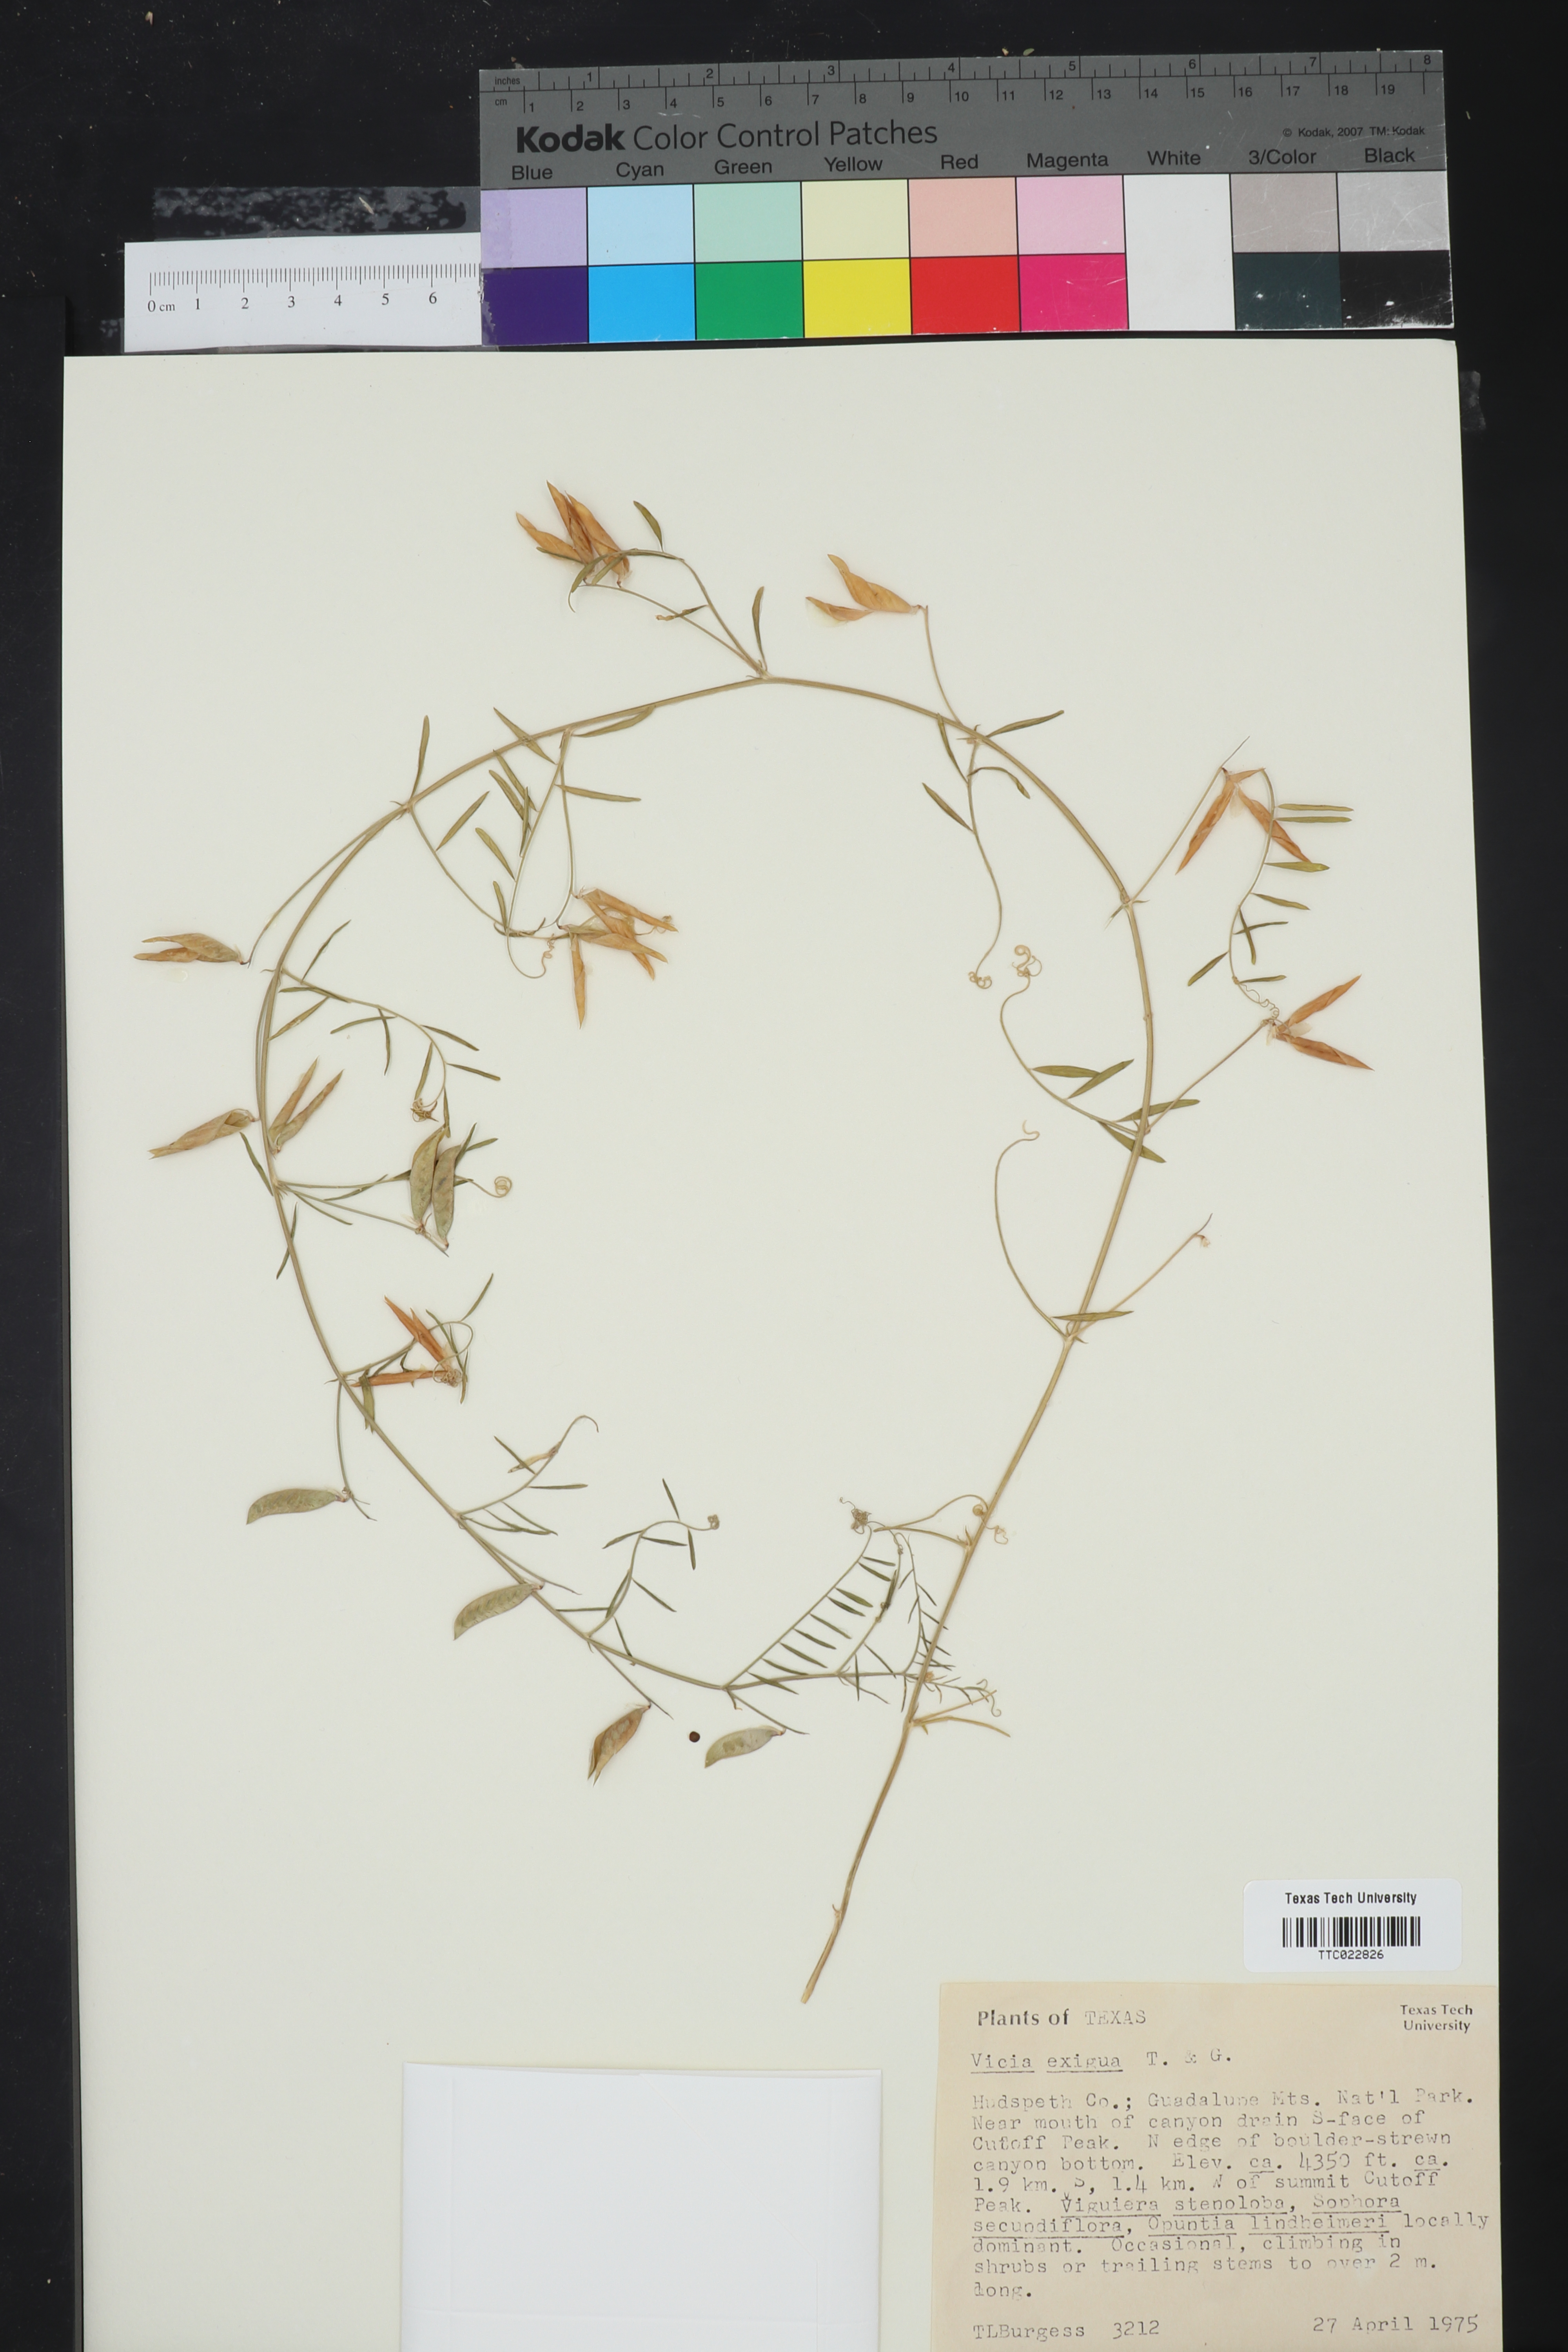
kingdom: Plantae
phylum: Tracheophyta
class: Magnoliopsida
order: Fabales
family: Fabaceae
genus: Vicia
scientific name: Vicia ludoviciana
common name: Louisiana vetch
